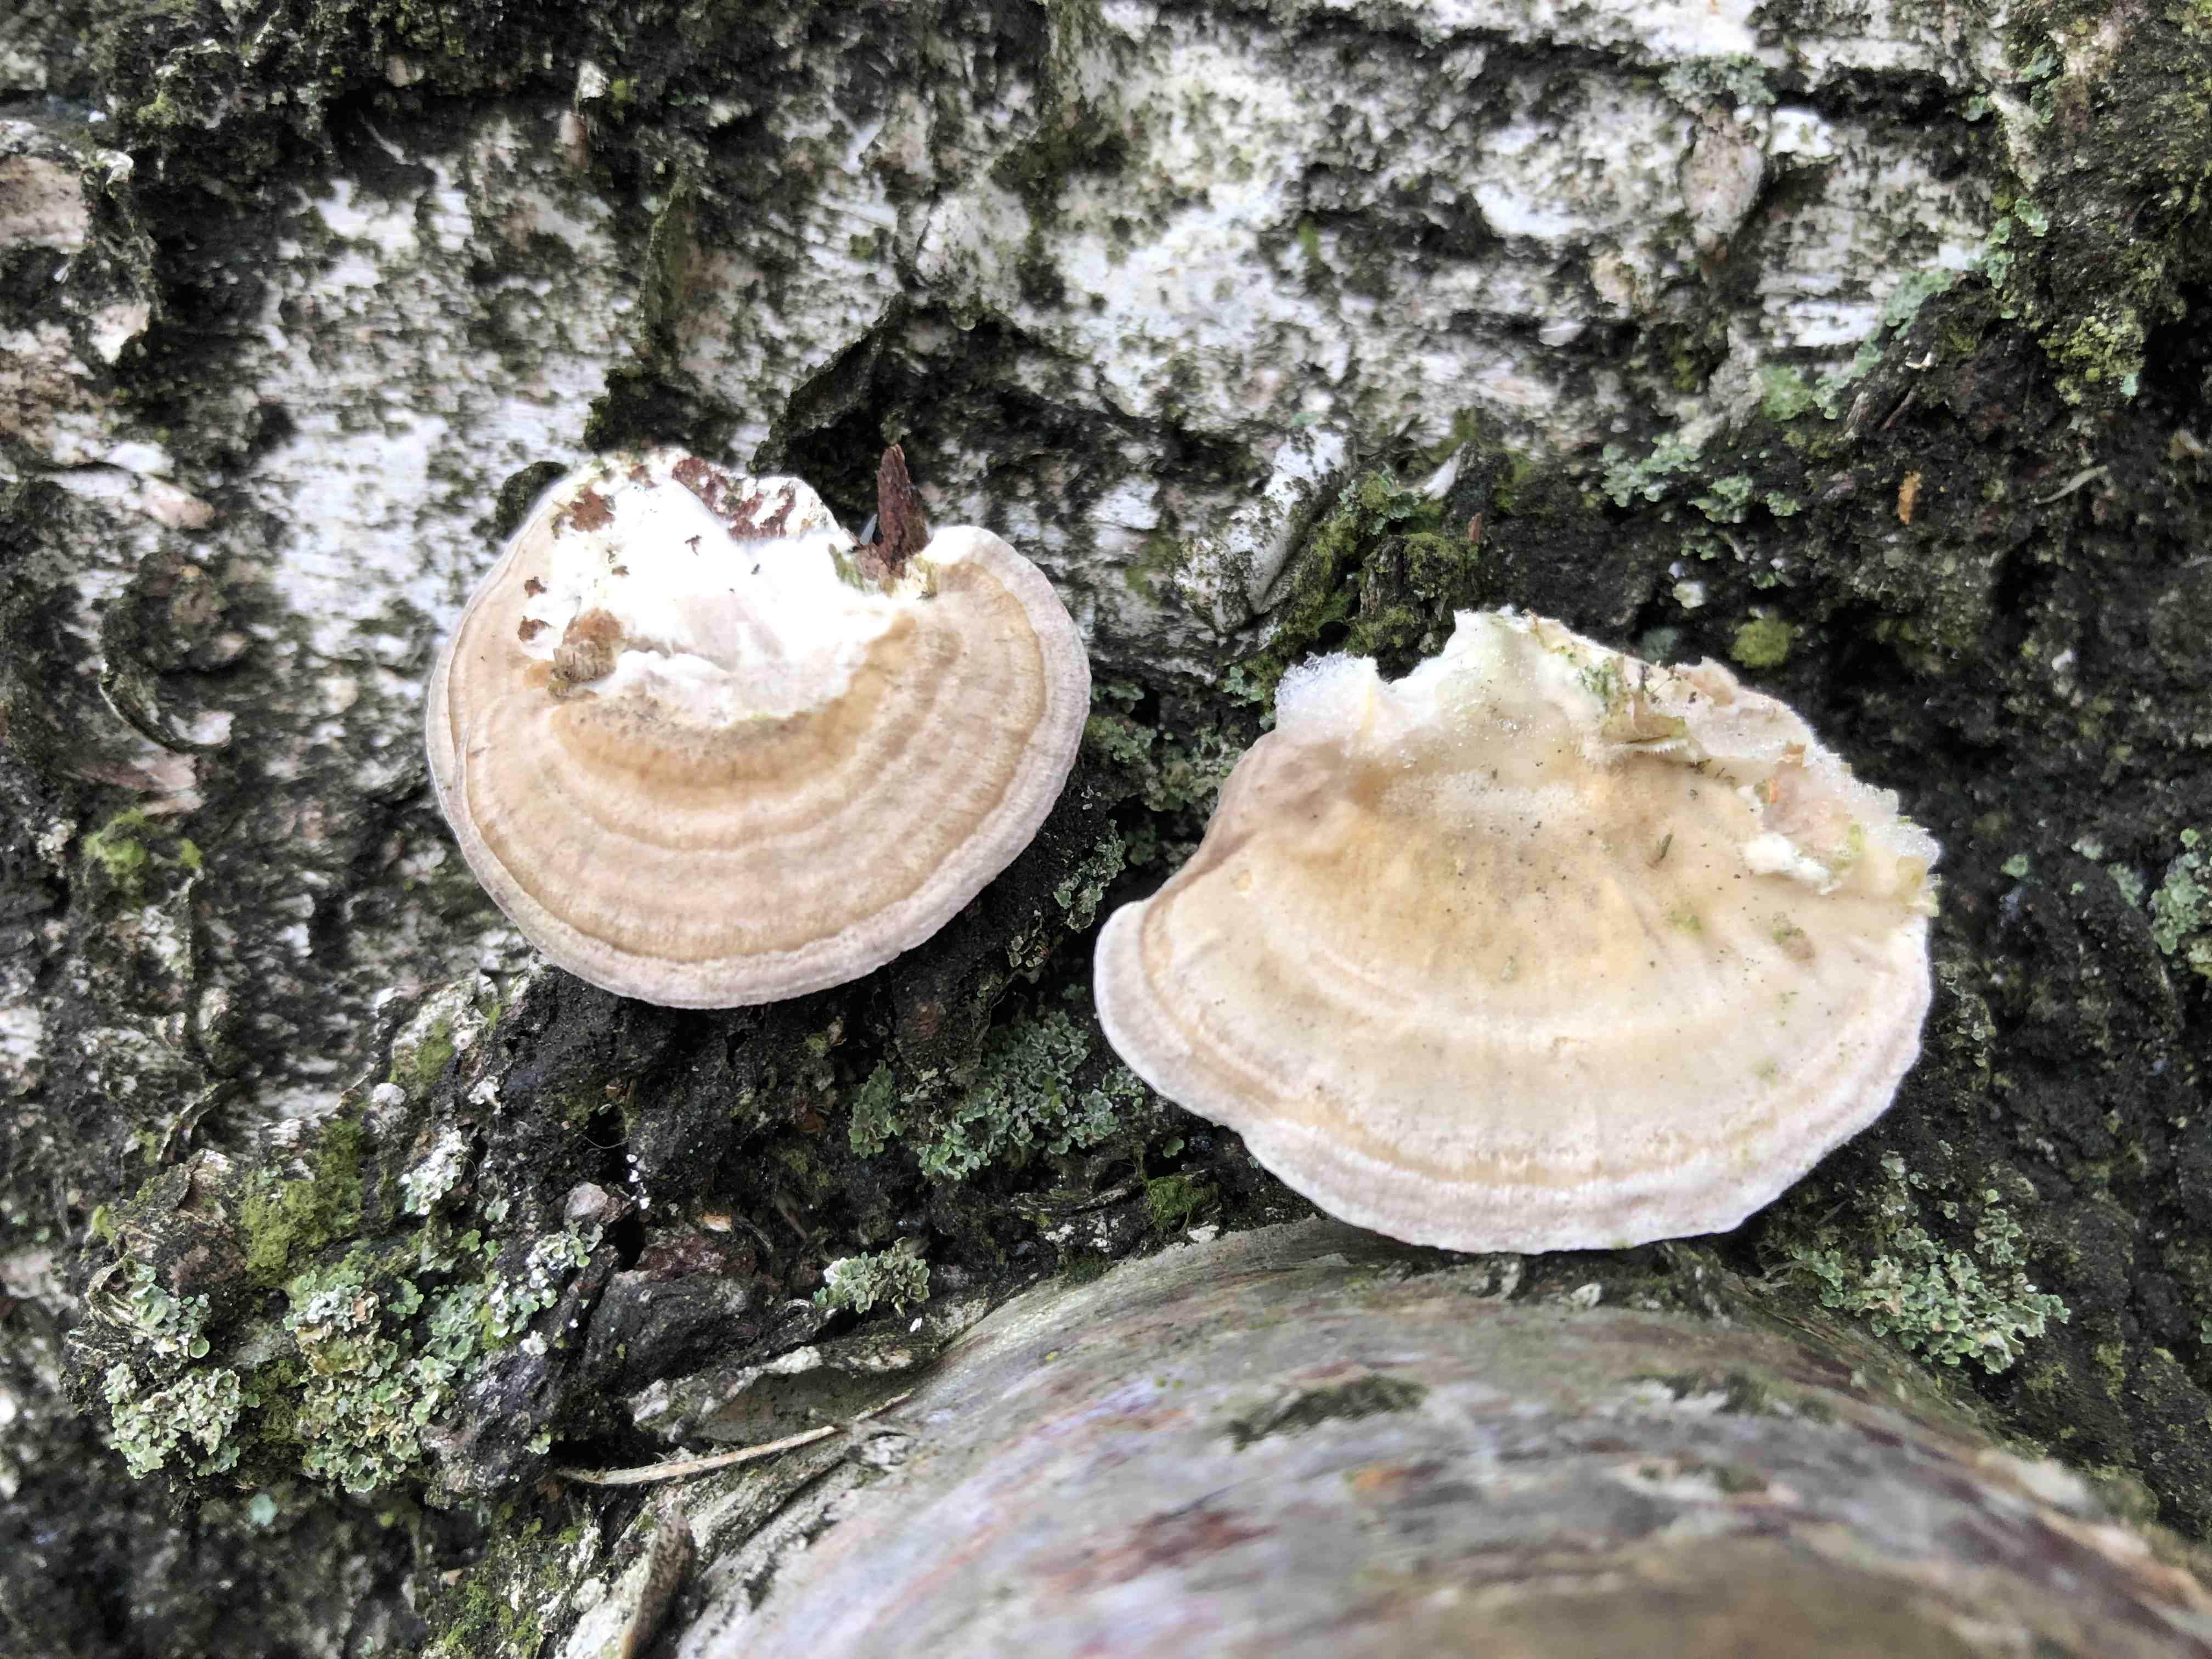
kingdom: Fungi
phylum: Basidiomycota
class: Agaricomycetes
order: Polyporales
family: Polyporaceae
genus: Trametes
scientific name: Trametes ochracea
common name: bæltet læderporesvamp
